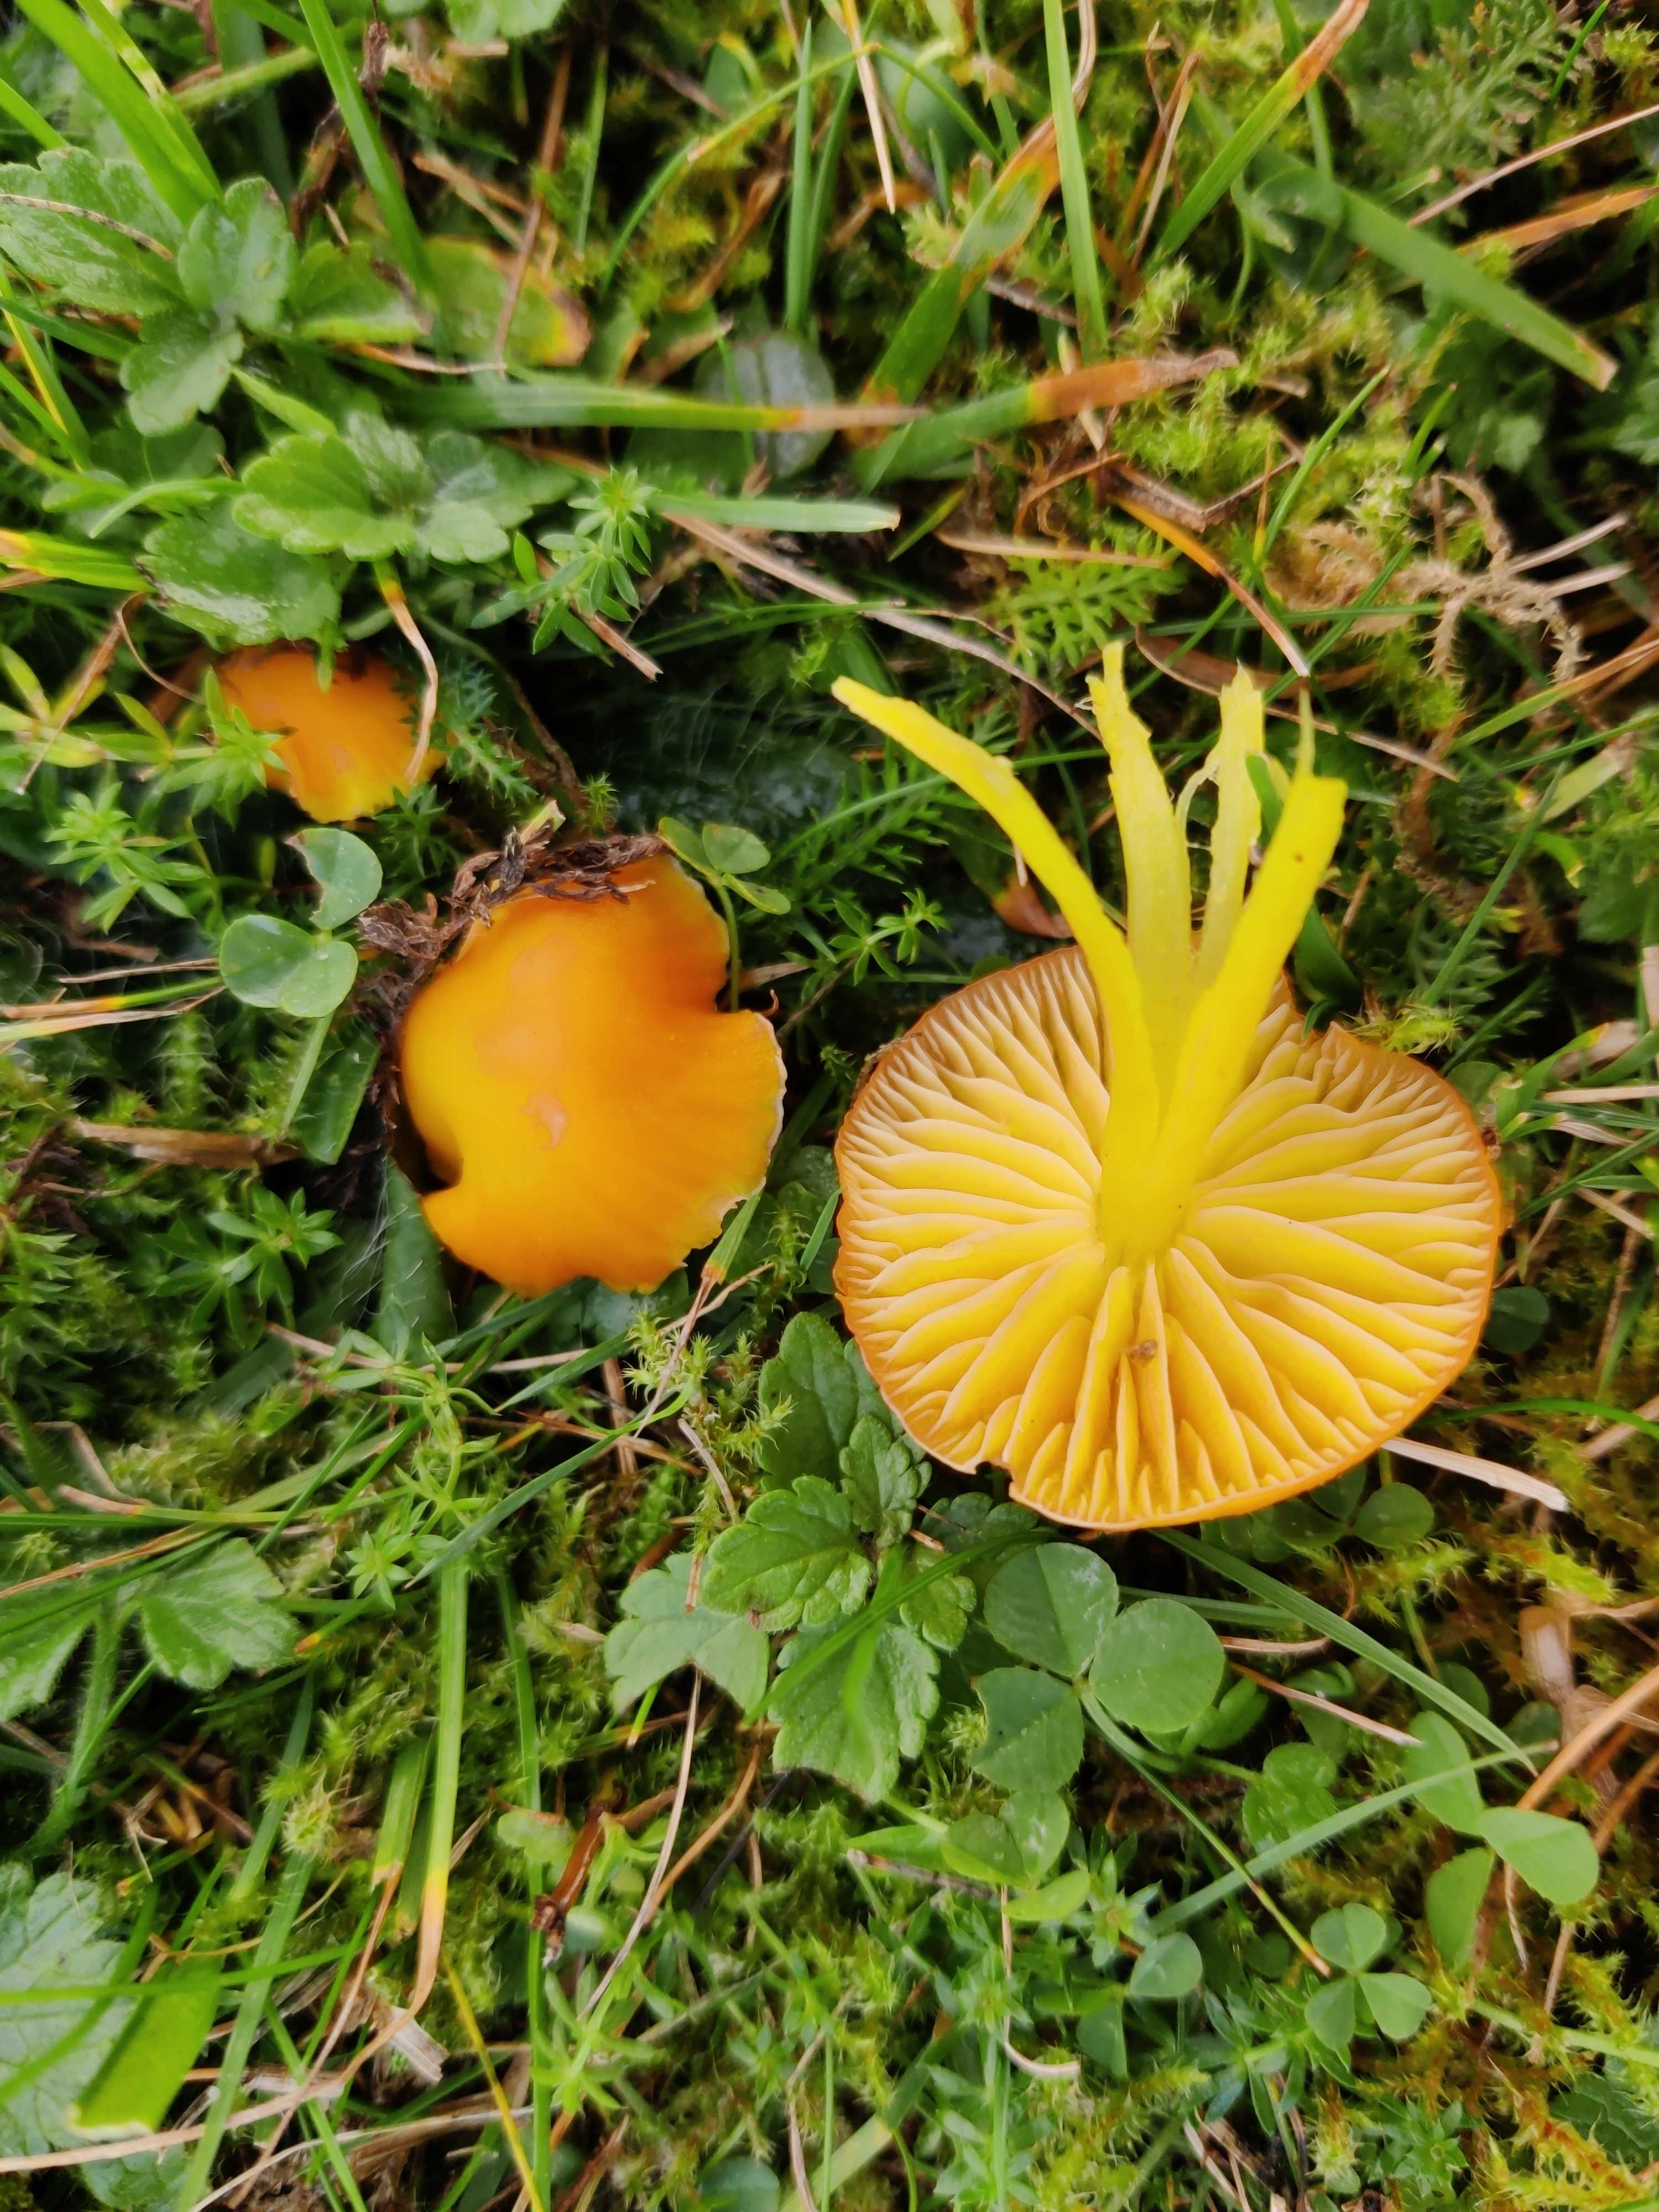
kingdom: Fungi
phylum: Basidiomycota
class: Agaricomycetes
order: Agaricales
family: Hygrophoraceae
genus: Hygrocybe
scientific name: Hygrocybe chlorophana
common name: gul vokshat
